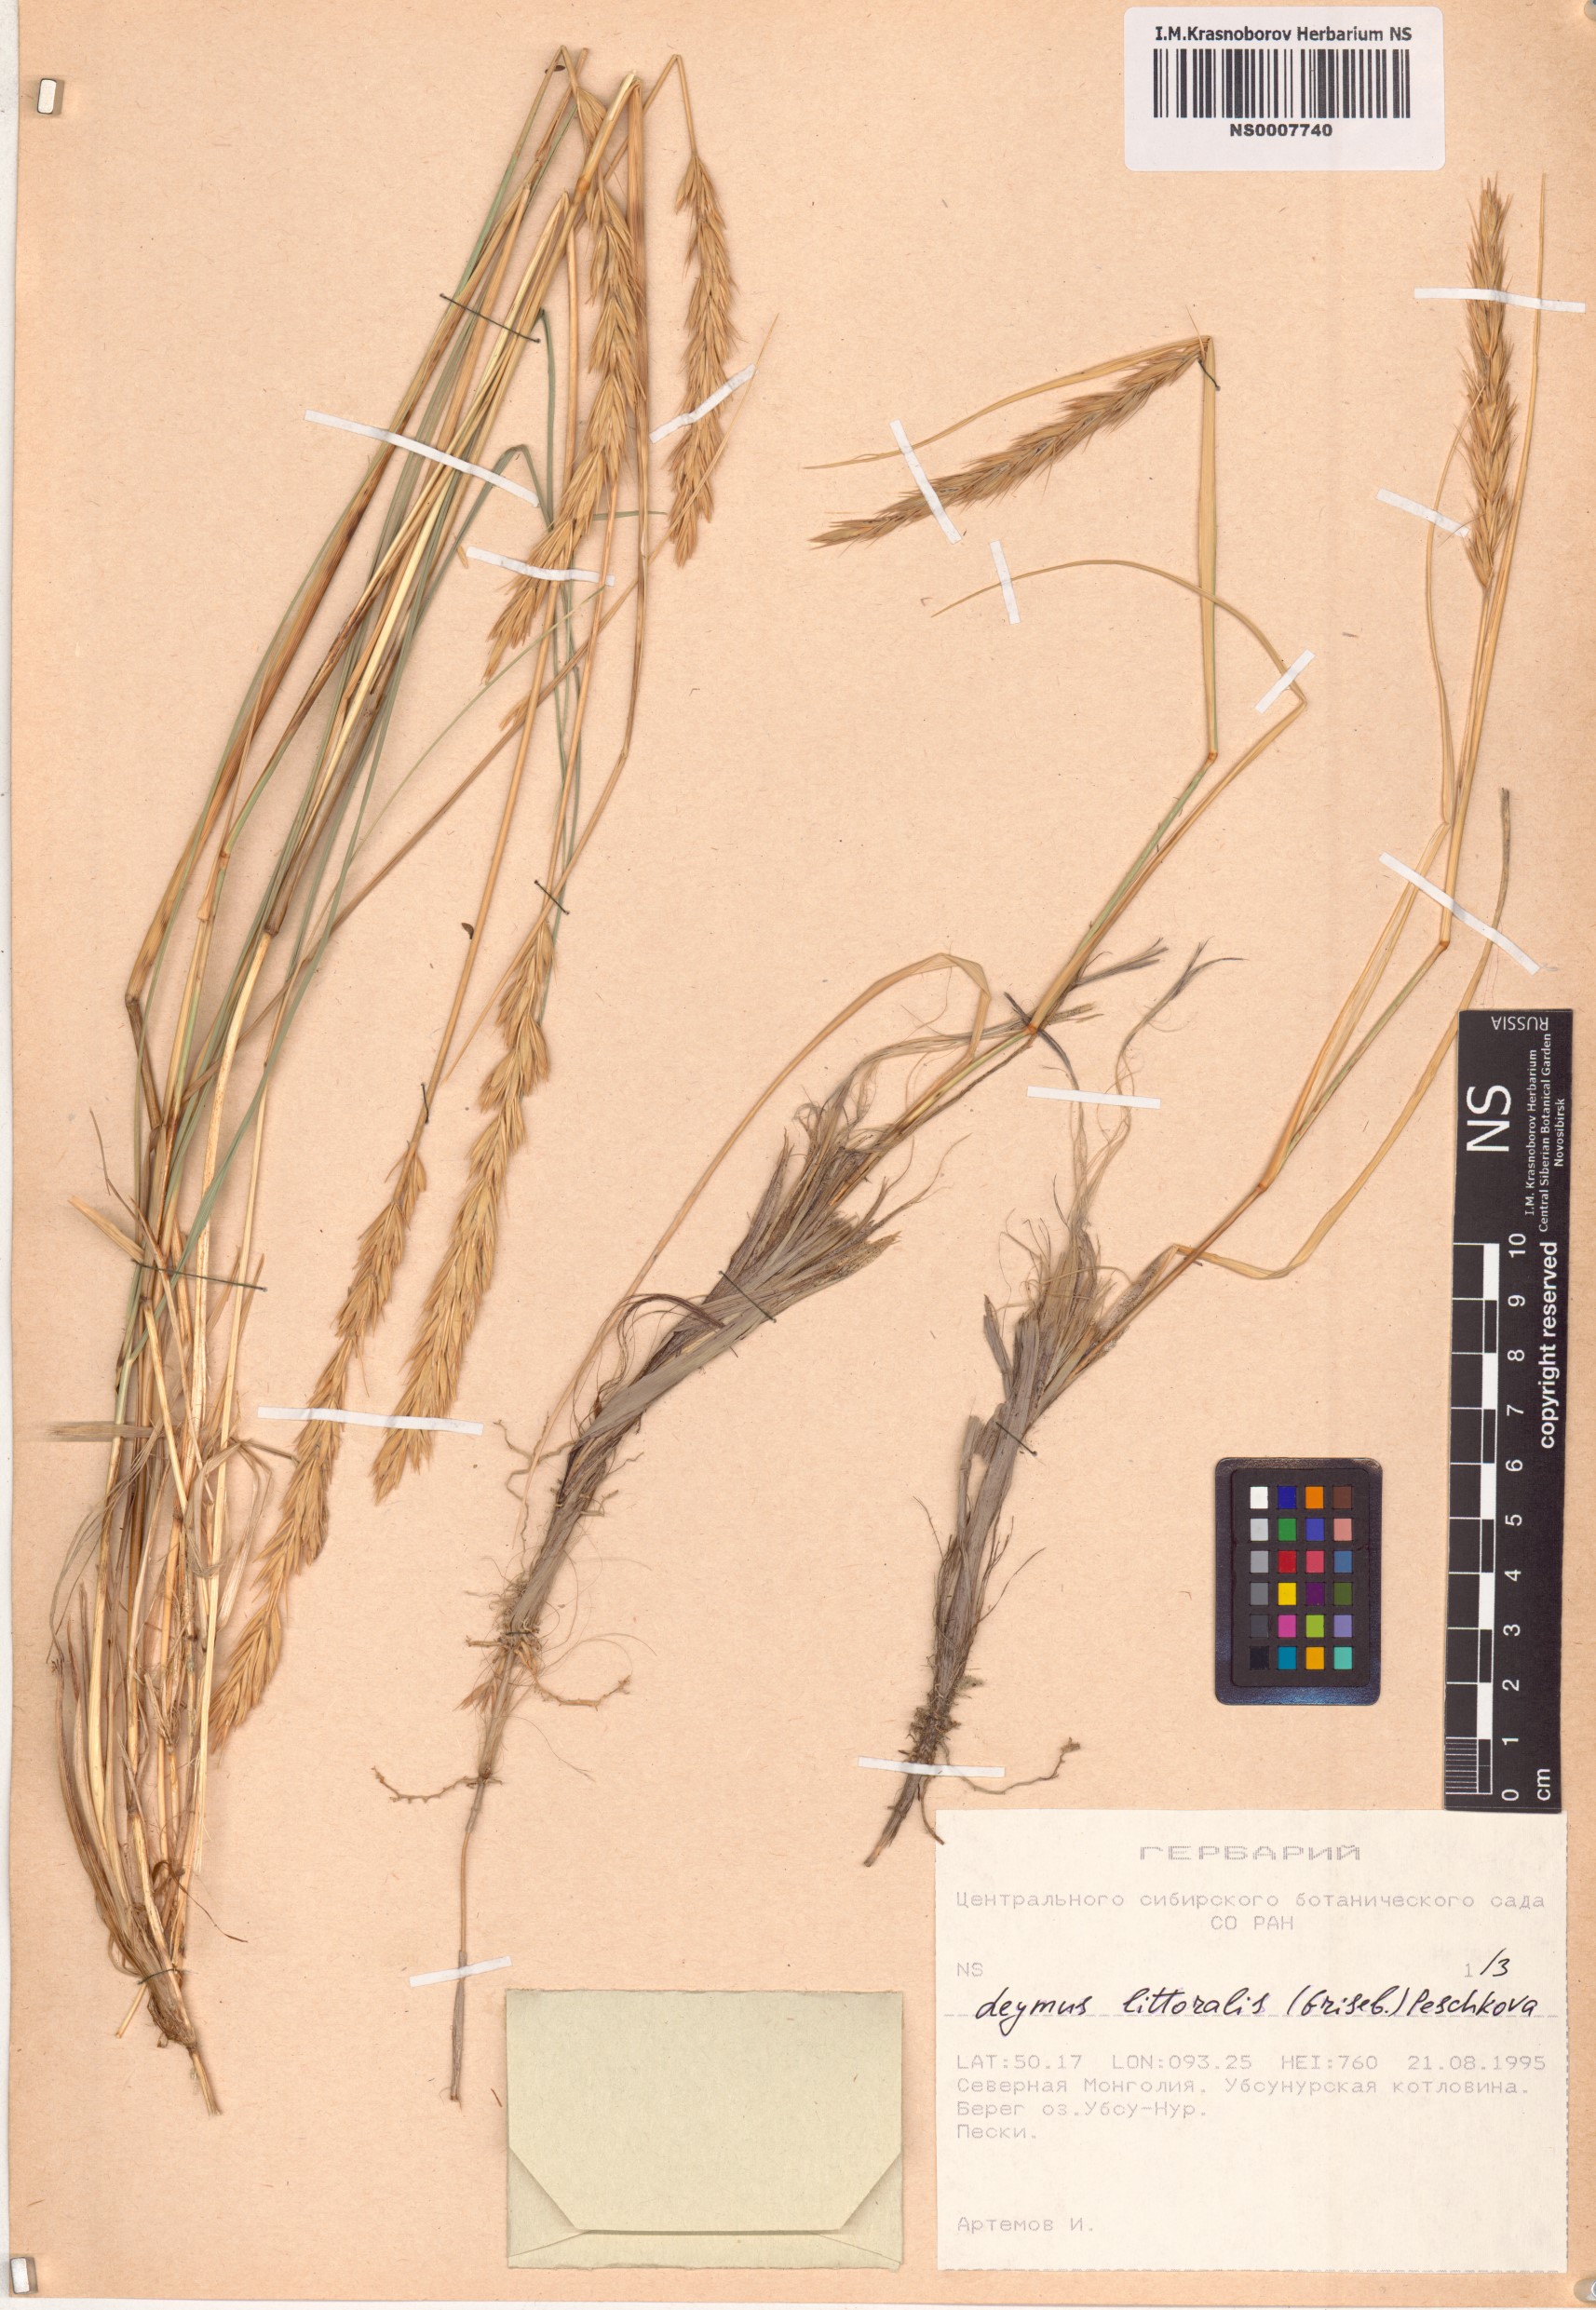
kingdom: Plantae
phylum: Tracheophyta
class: Liliopsida
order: Poales
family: Poaceae
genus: Leymus
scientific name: Leymus secalinus
